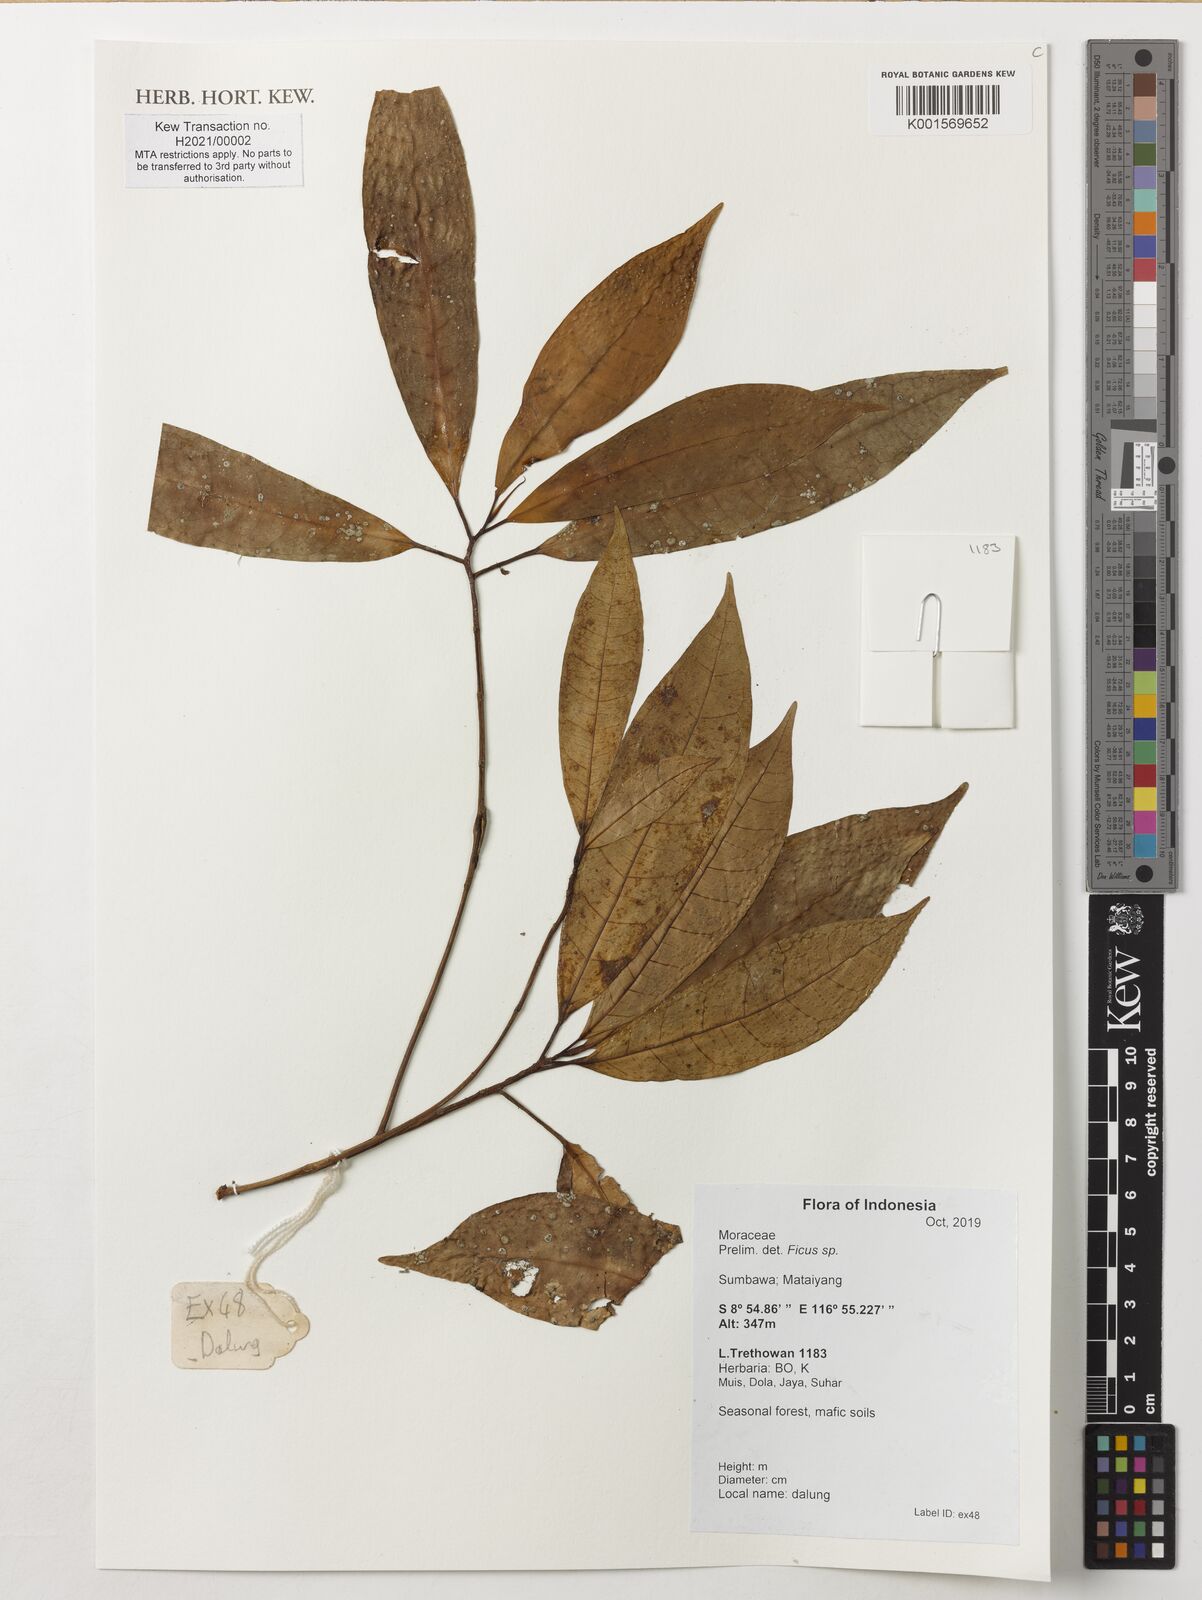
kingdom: Plantae
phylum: Tracheophyta
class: Magnoliopsida
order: Rosales
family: Moraceae
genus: Ficus
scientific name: Ficus
